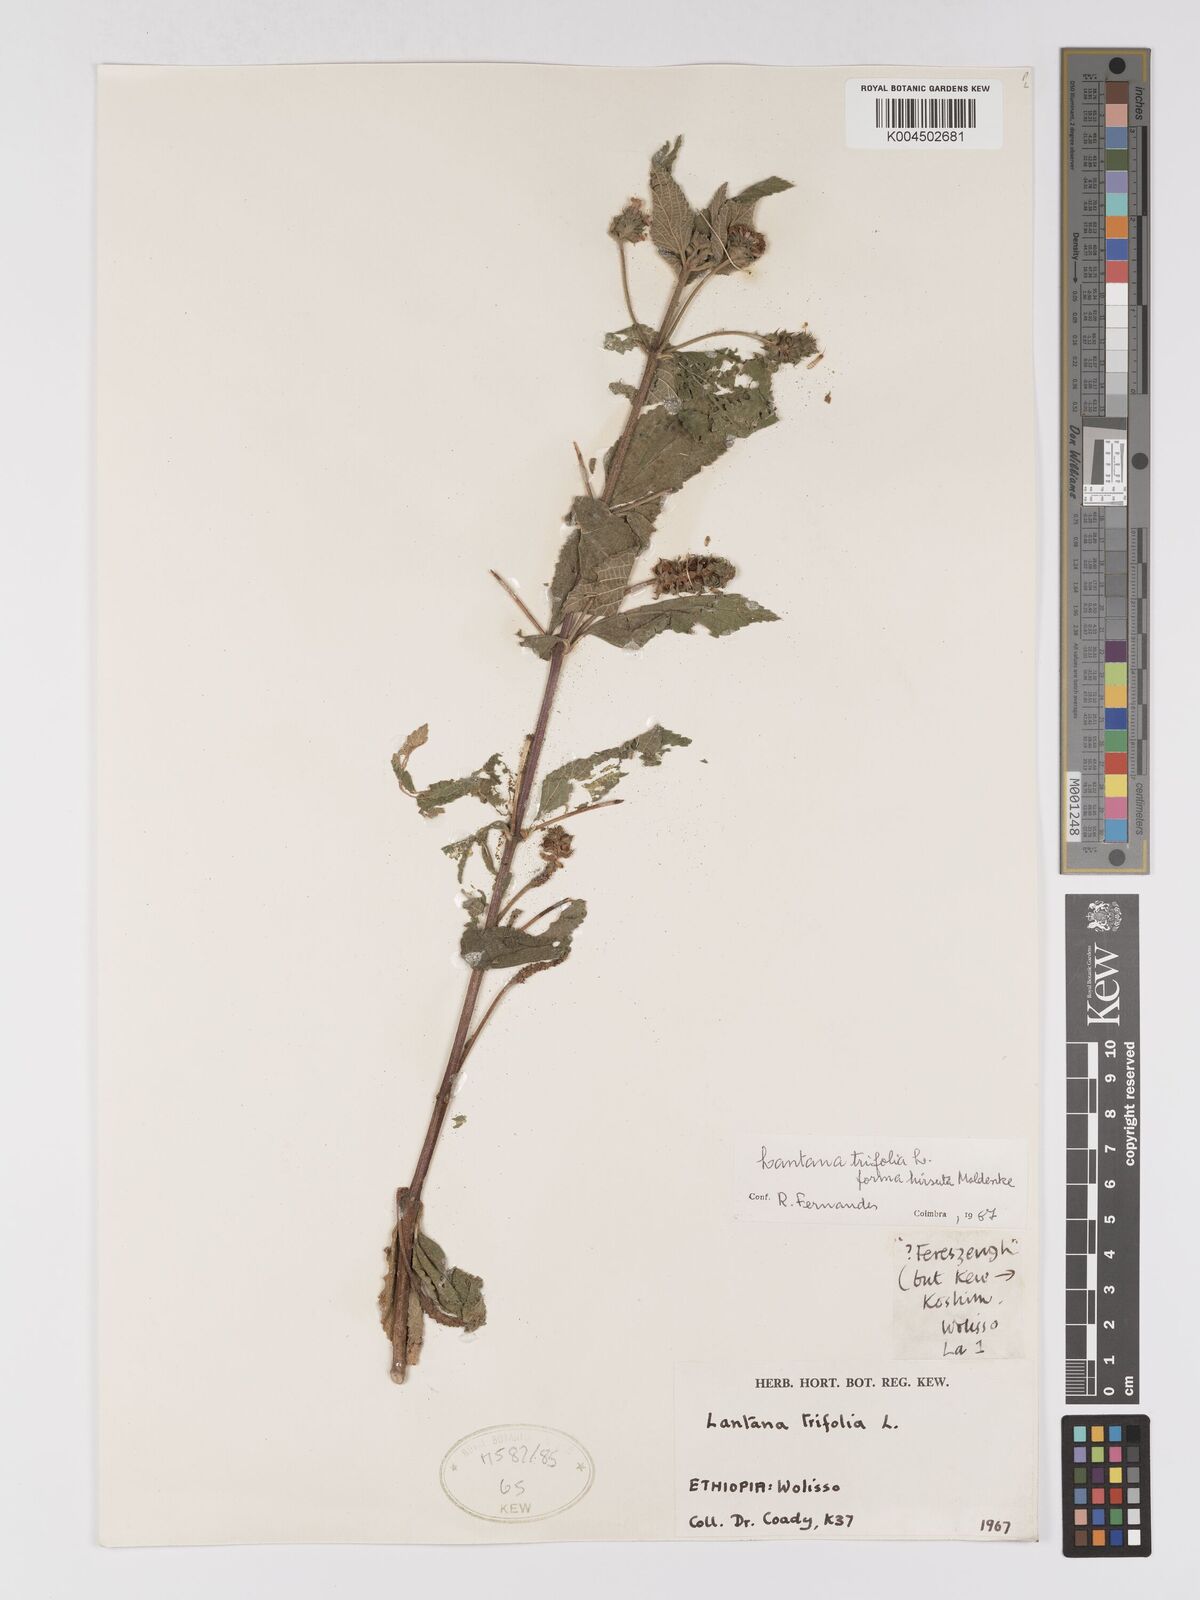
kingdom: Plantae
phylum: Tracheophyta
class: Magnoliopsida
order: Lamiales
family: Verbenaceae
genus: Lantana
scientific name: Lantana trifolia
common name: Sweet-sage
